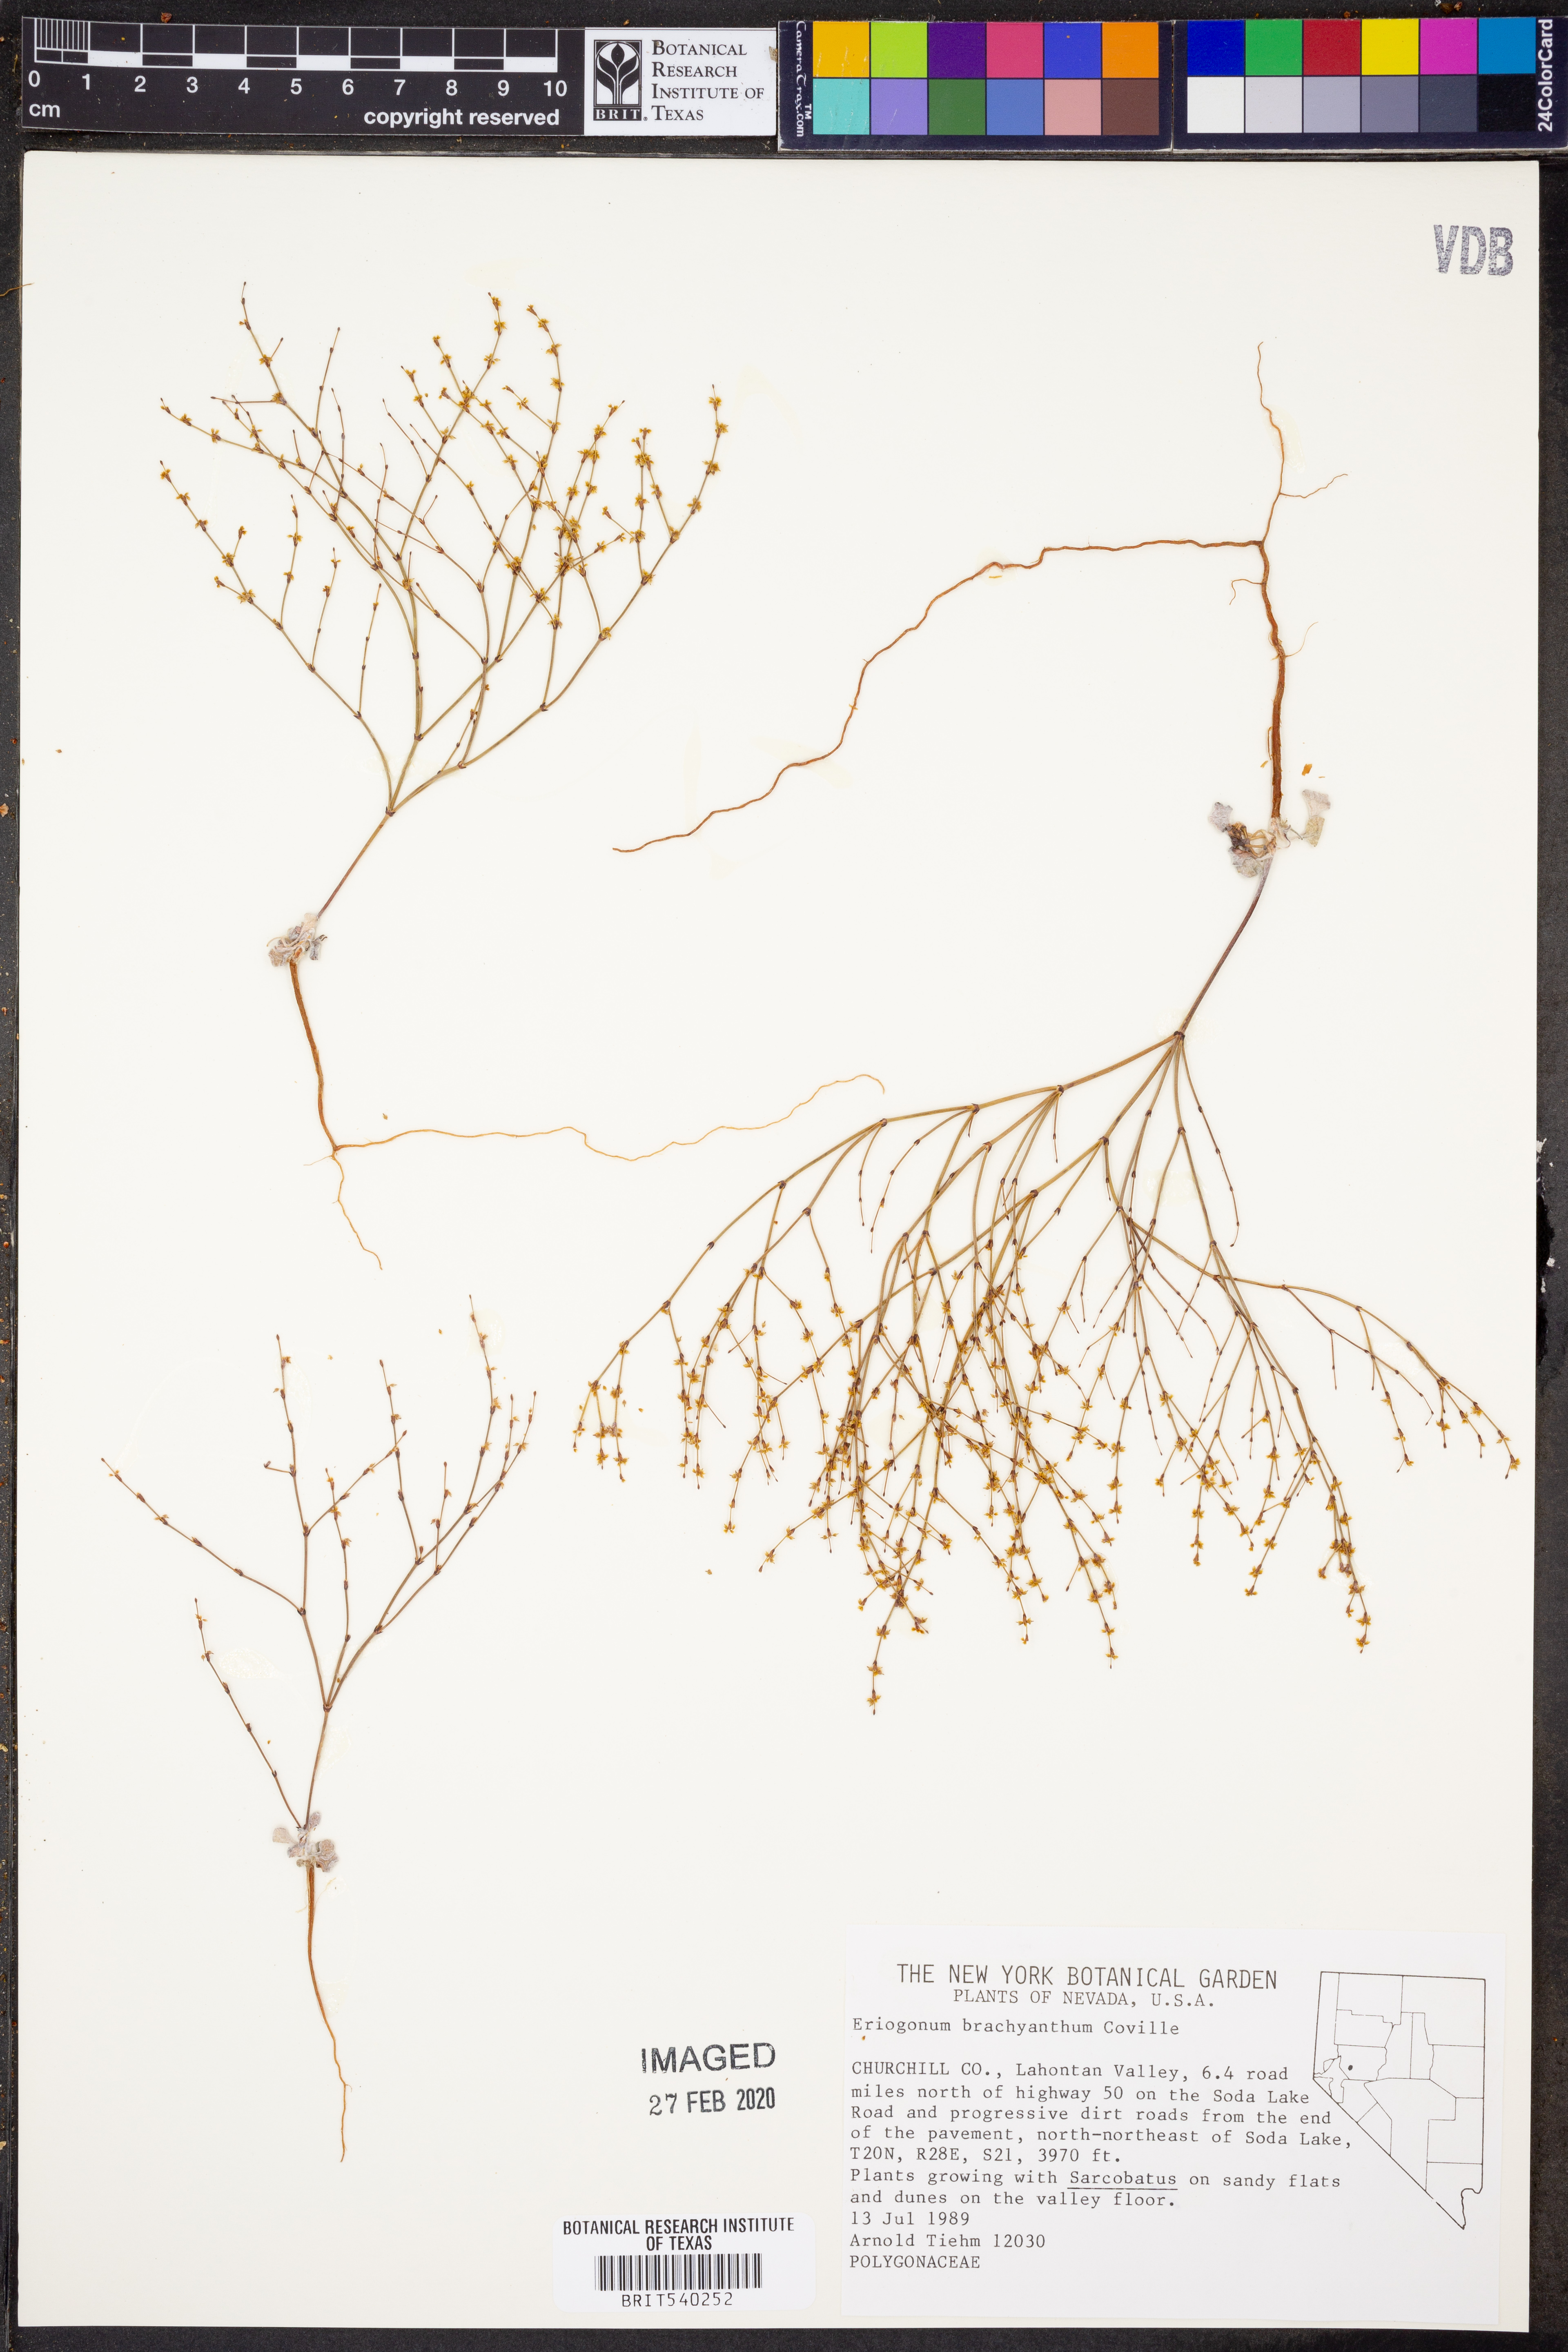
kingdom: Plantae
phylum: Tracheophyta
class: Magnoliopsida
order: Caryophyllales
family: Polygonaceae
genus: Eriogonum
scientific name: Eriogonum brachyanthum
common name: Short-flower wild buckwheat
